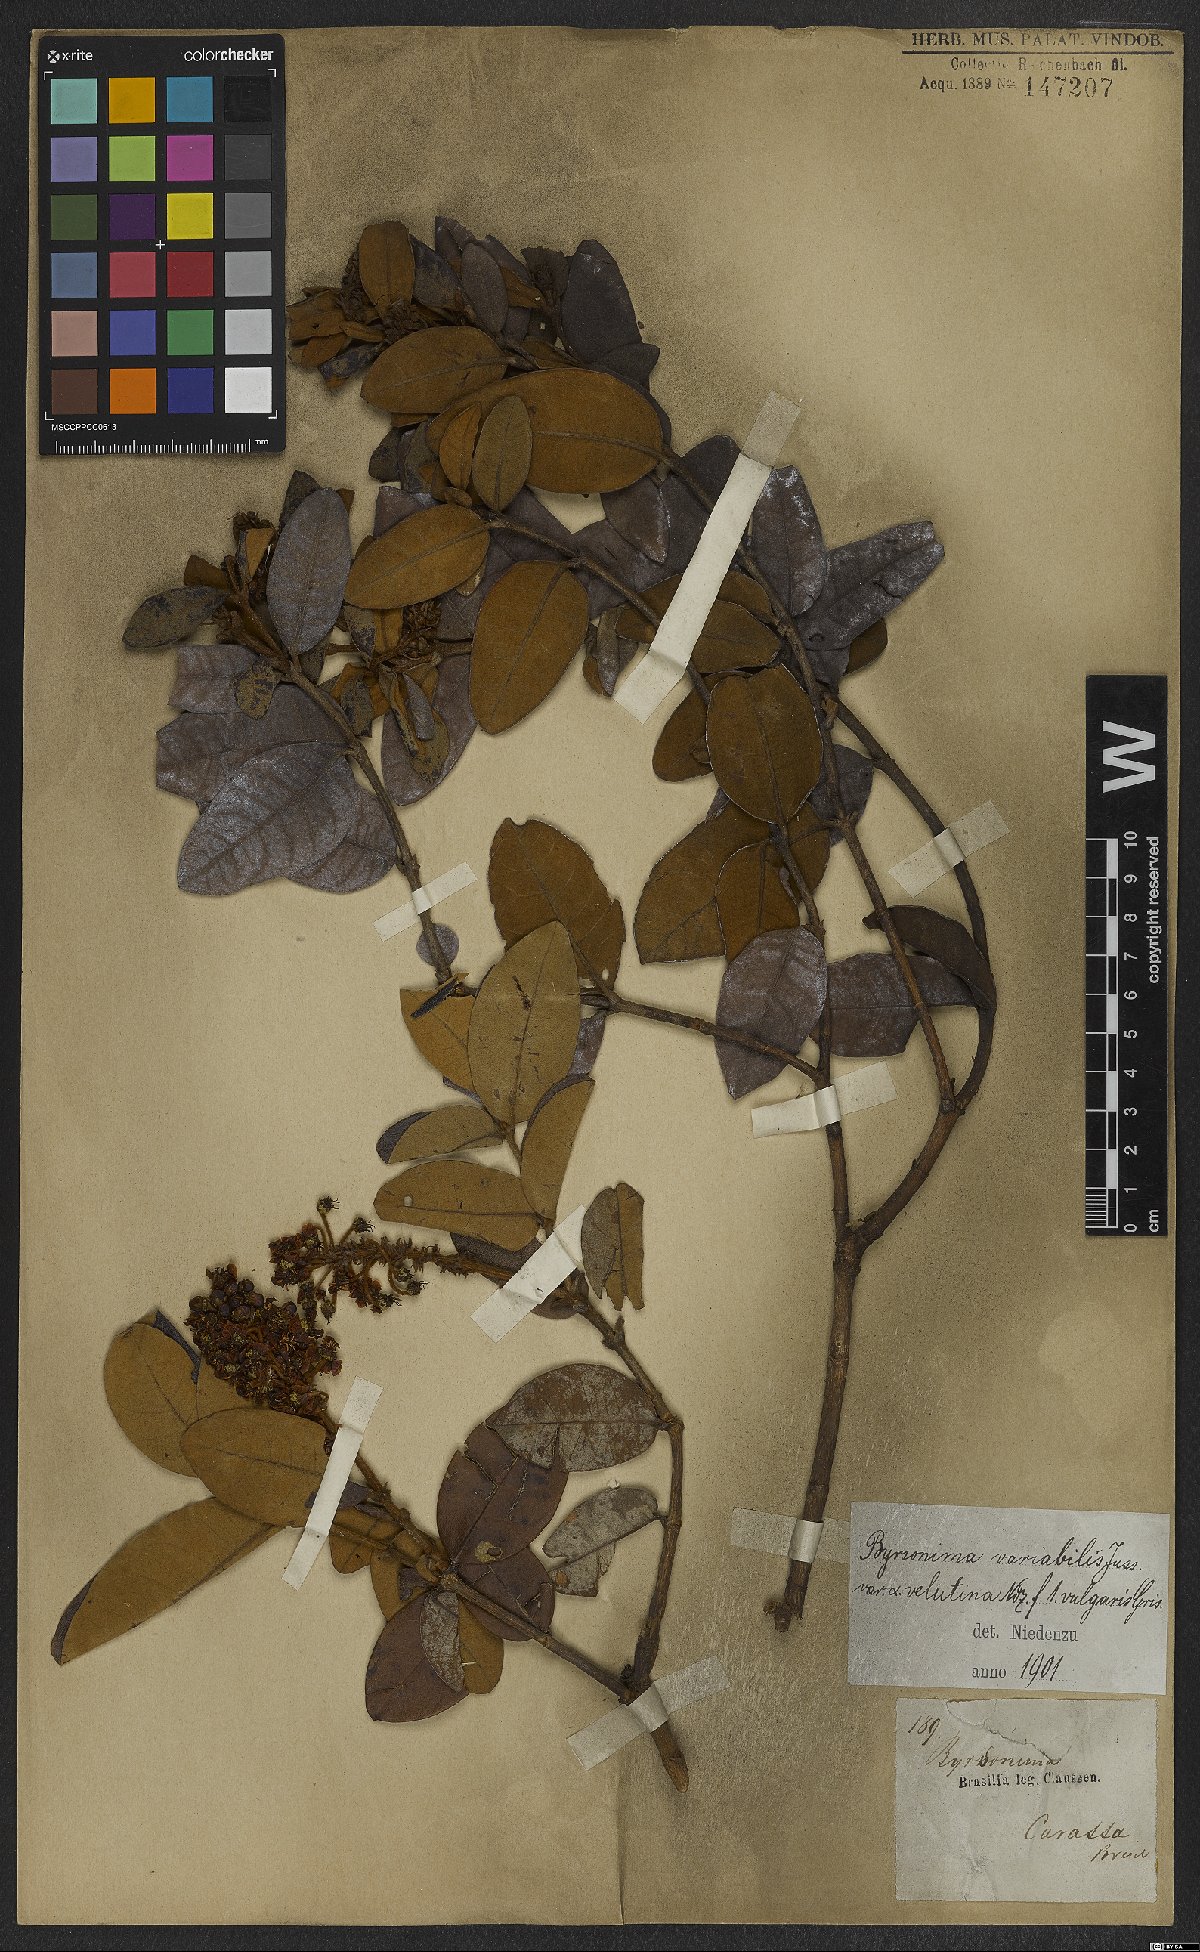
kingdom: Plantae
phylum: Tracheophyta
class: Magnoliopsida
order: Malpighiales
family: Malpighiaceae
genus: Byrsonima
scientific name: Byrsonima variabilis
